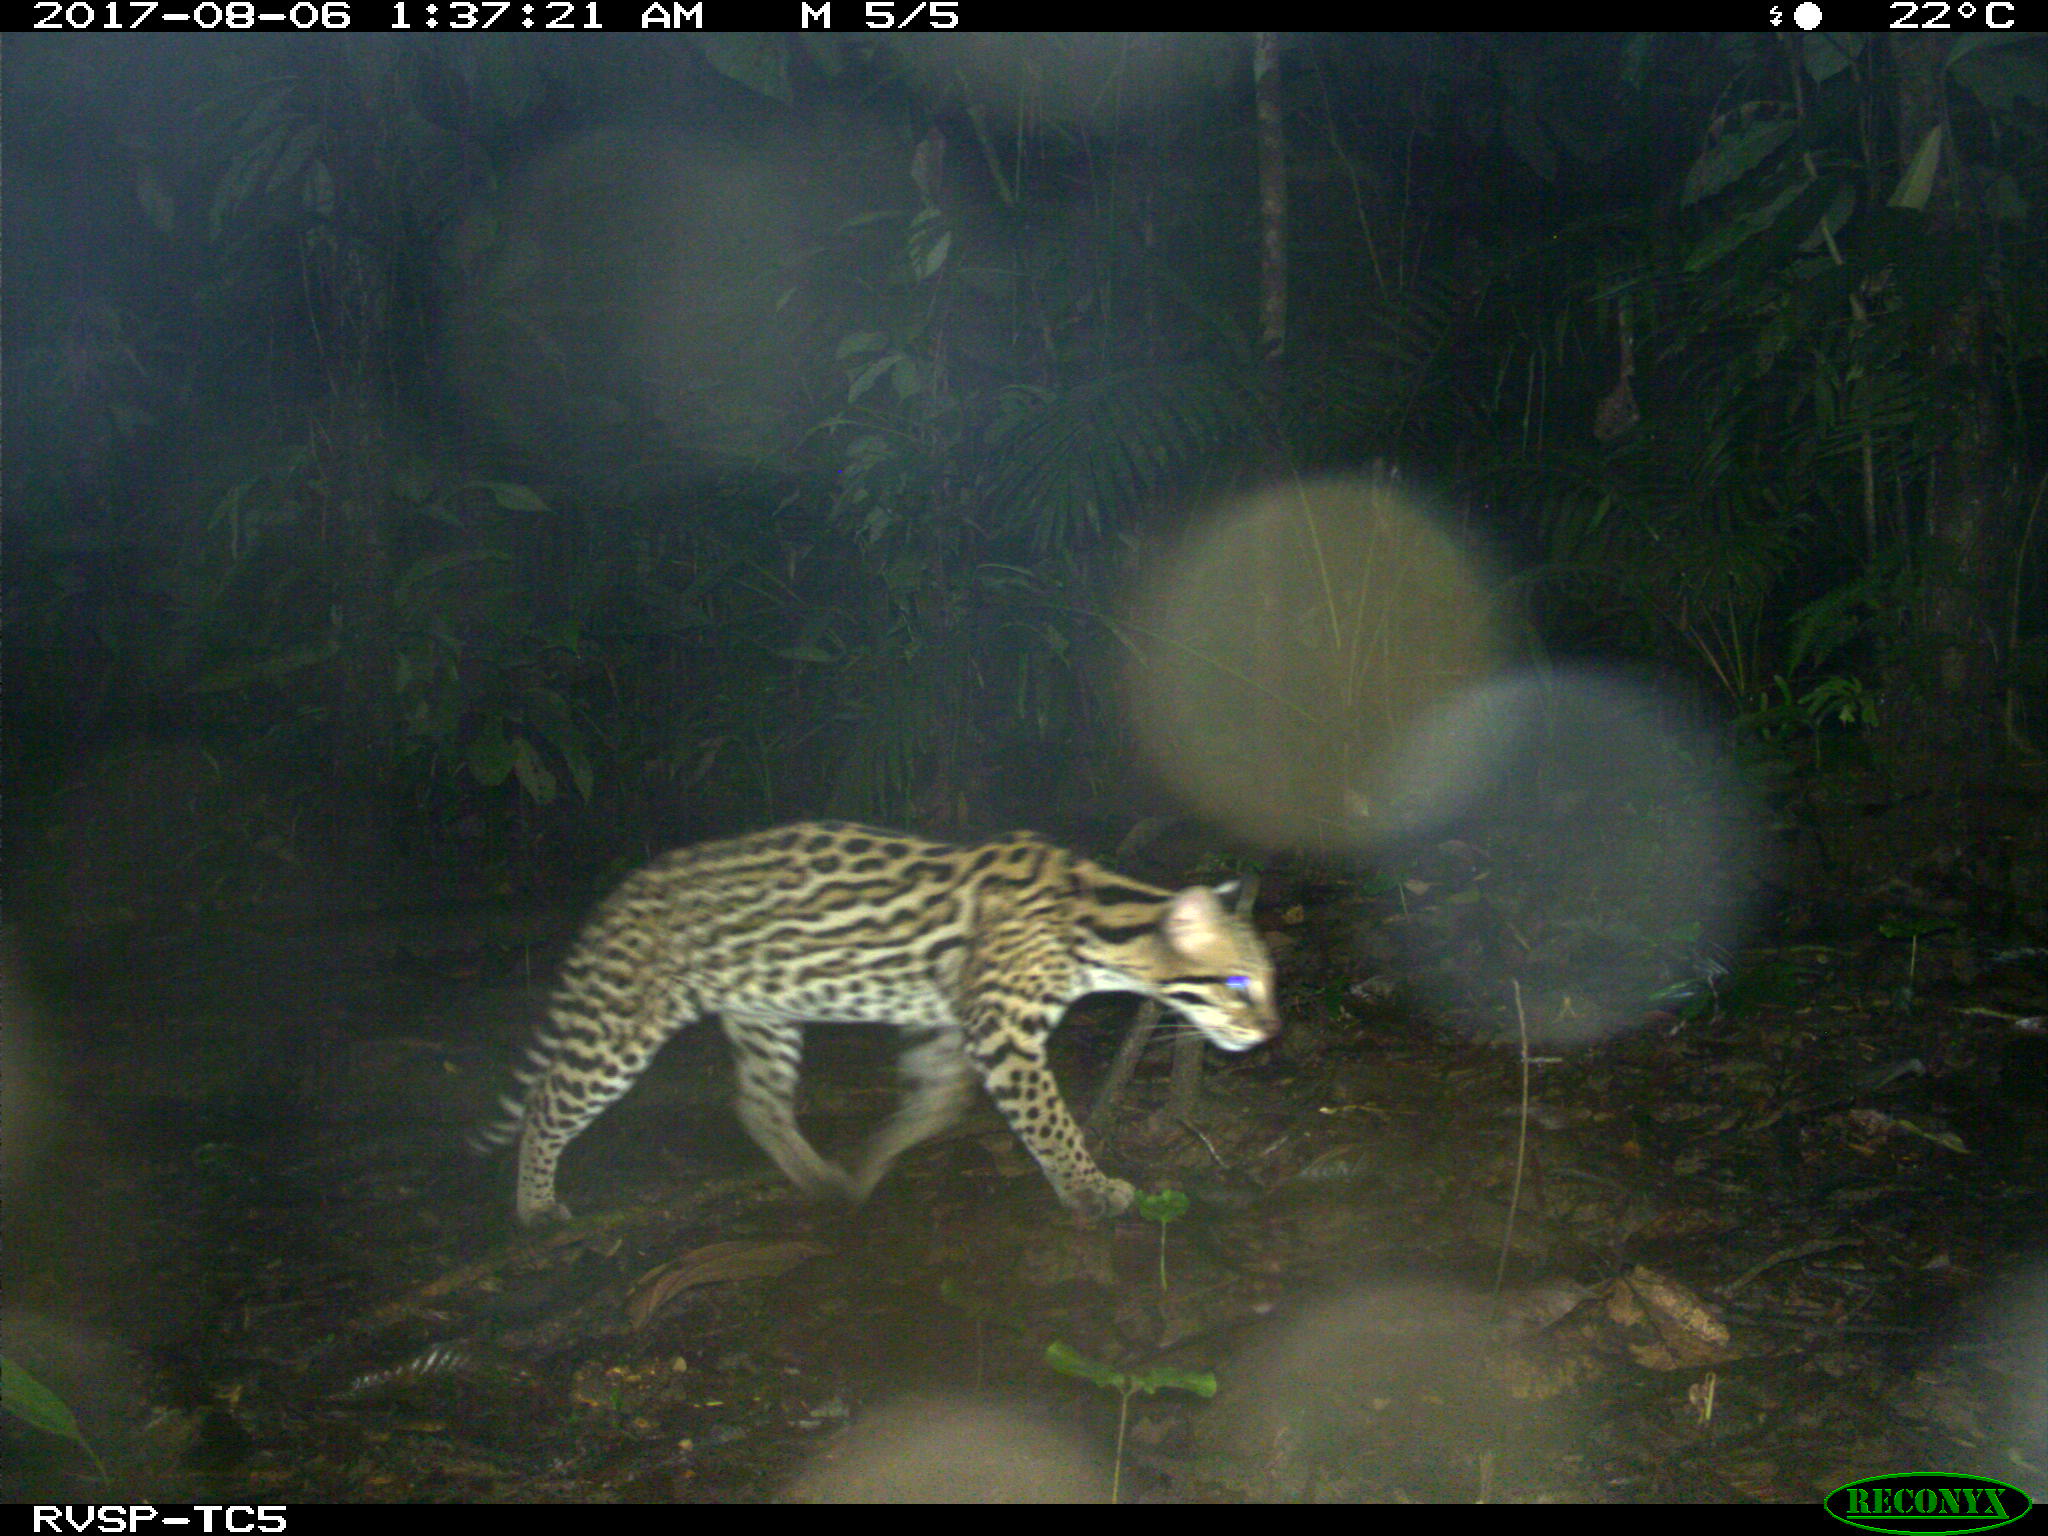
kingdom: Animalia
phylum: Chordata
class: Mammalia
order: Carnivora
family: Felidae
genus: Leopardus
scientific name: Leopardus pardalis
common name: Ocelot
